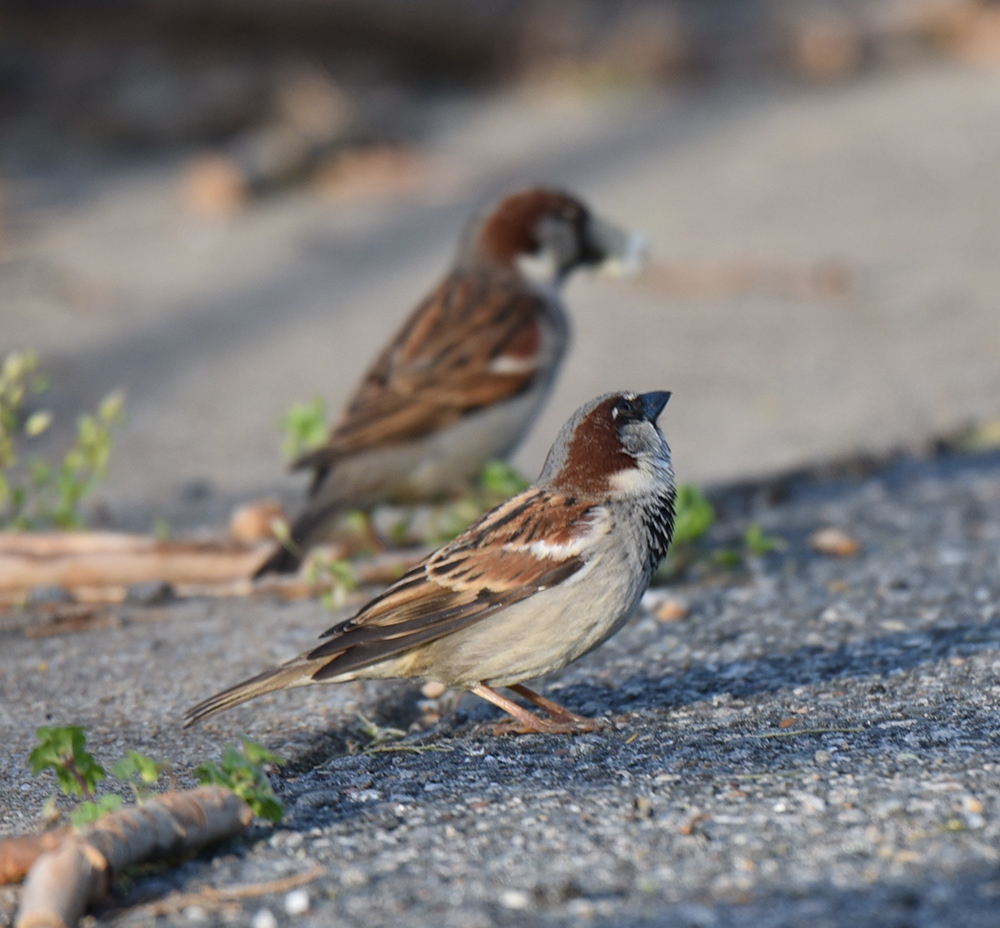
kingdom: Animalia
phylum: Chordata
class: Aves
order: Passeriformes
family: Passeridae
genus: Passer
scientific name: Passer domesticus
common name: House sparrow
